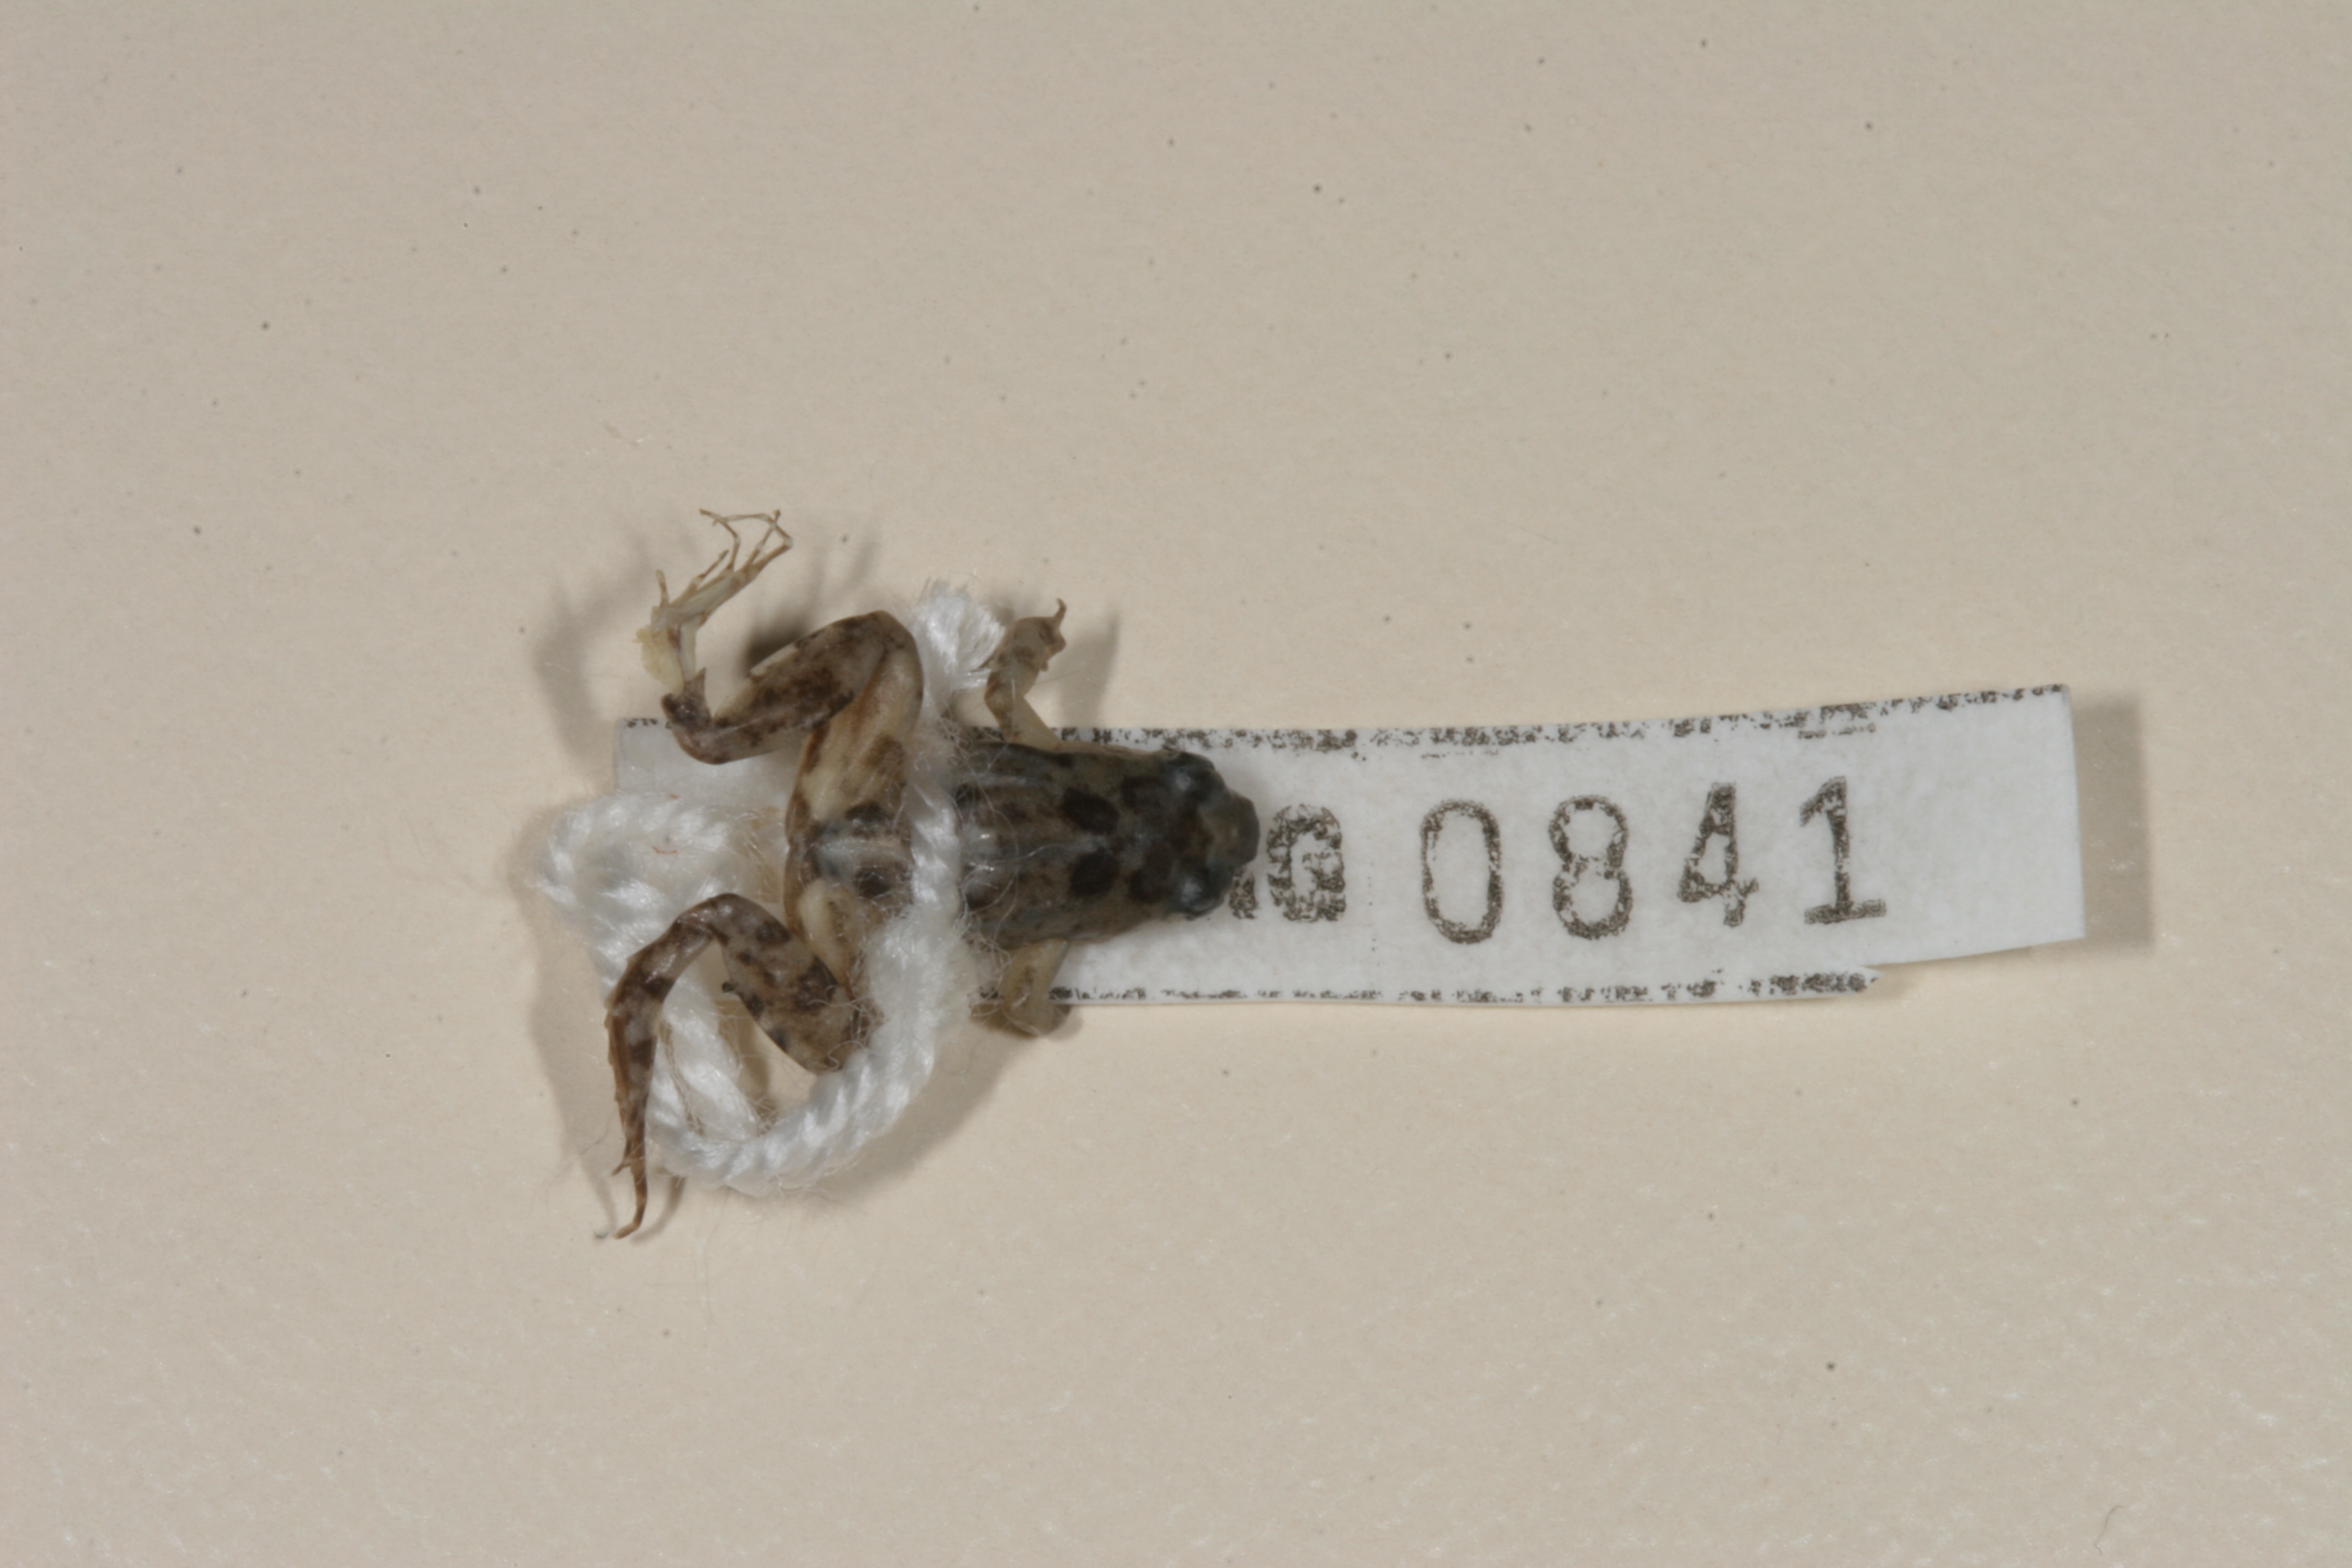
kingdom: Animalia
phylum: Chordata
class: Amphibia
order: Anura
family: Phrynobatrachidae
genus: Phrynobatrachus
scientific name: Phrynobatrachus mababiensis
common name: Dwarf puddle frog
